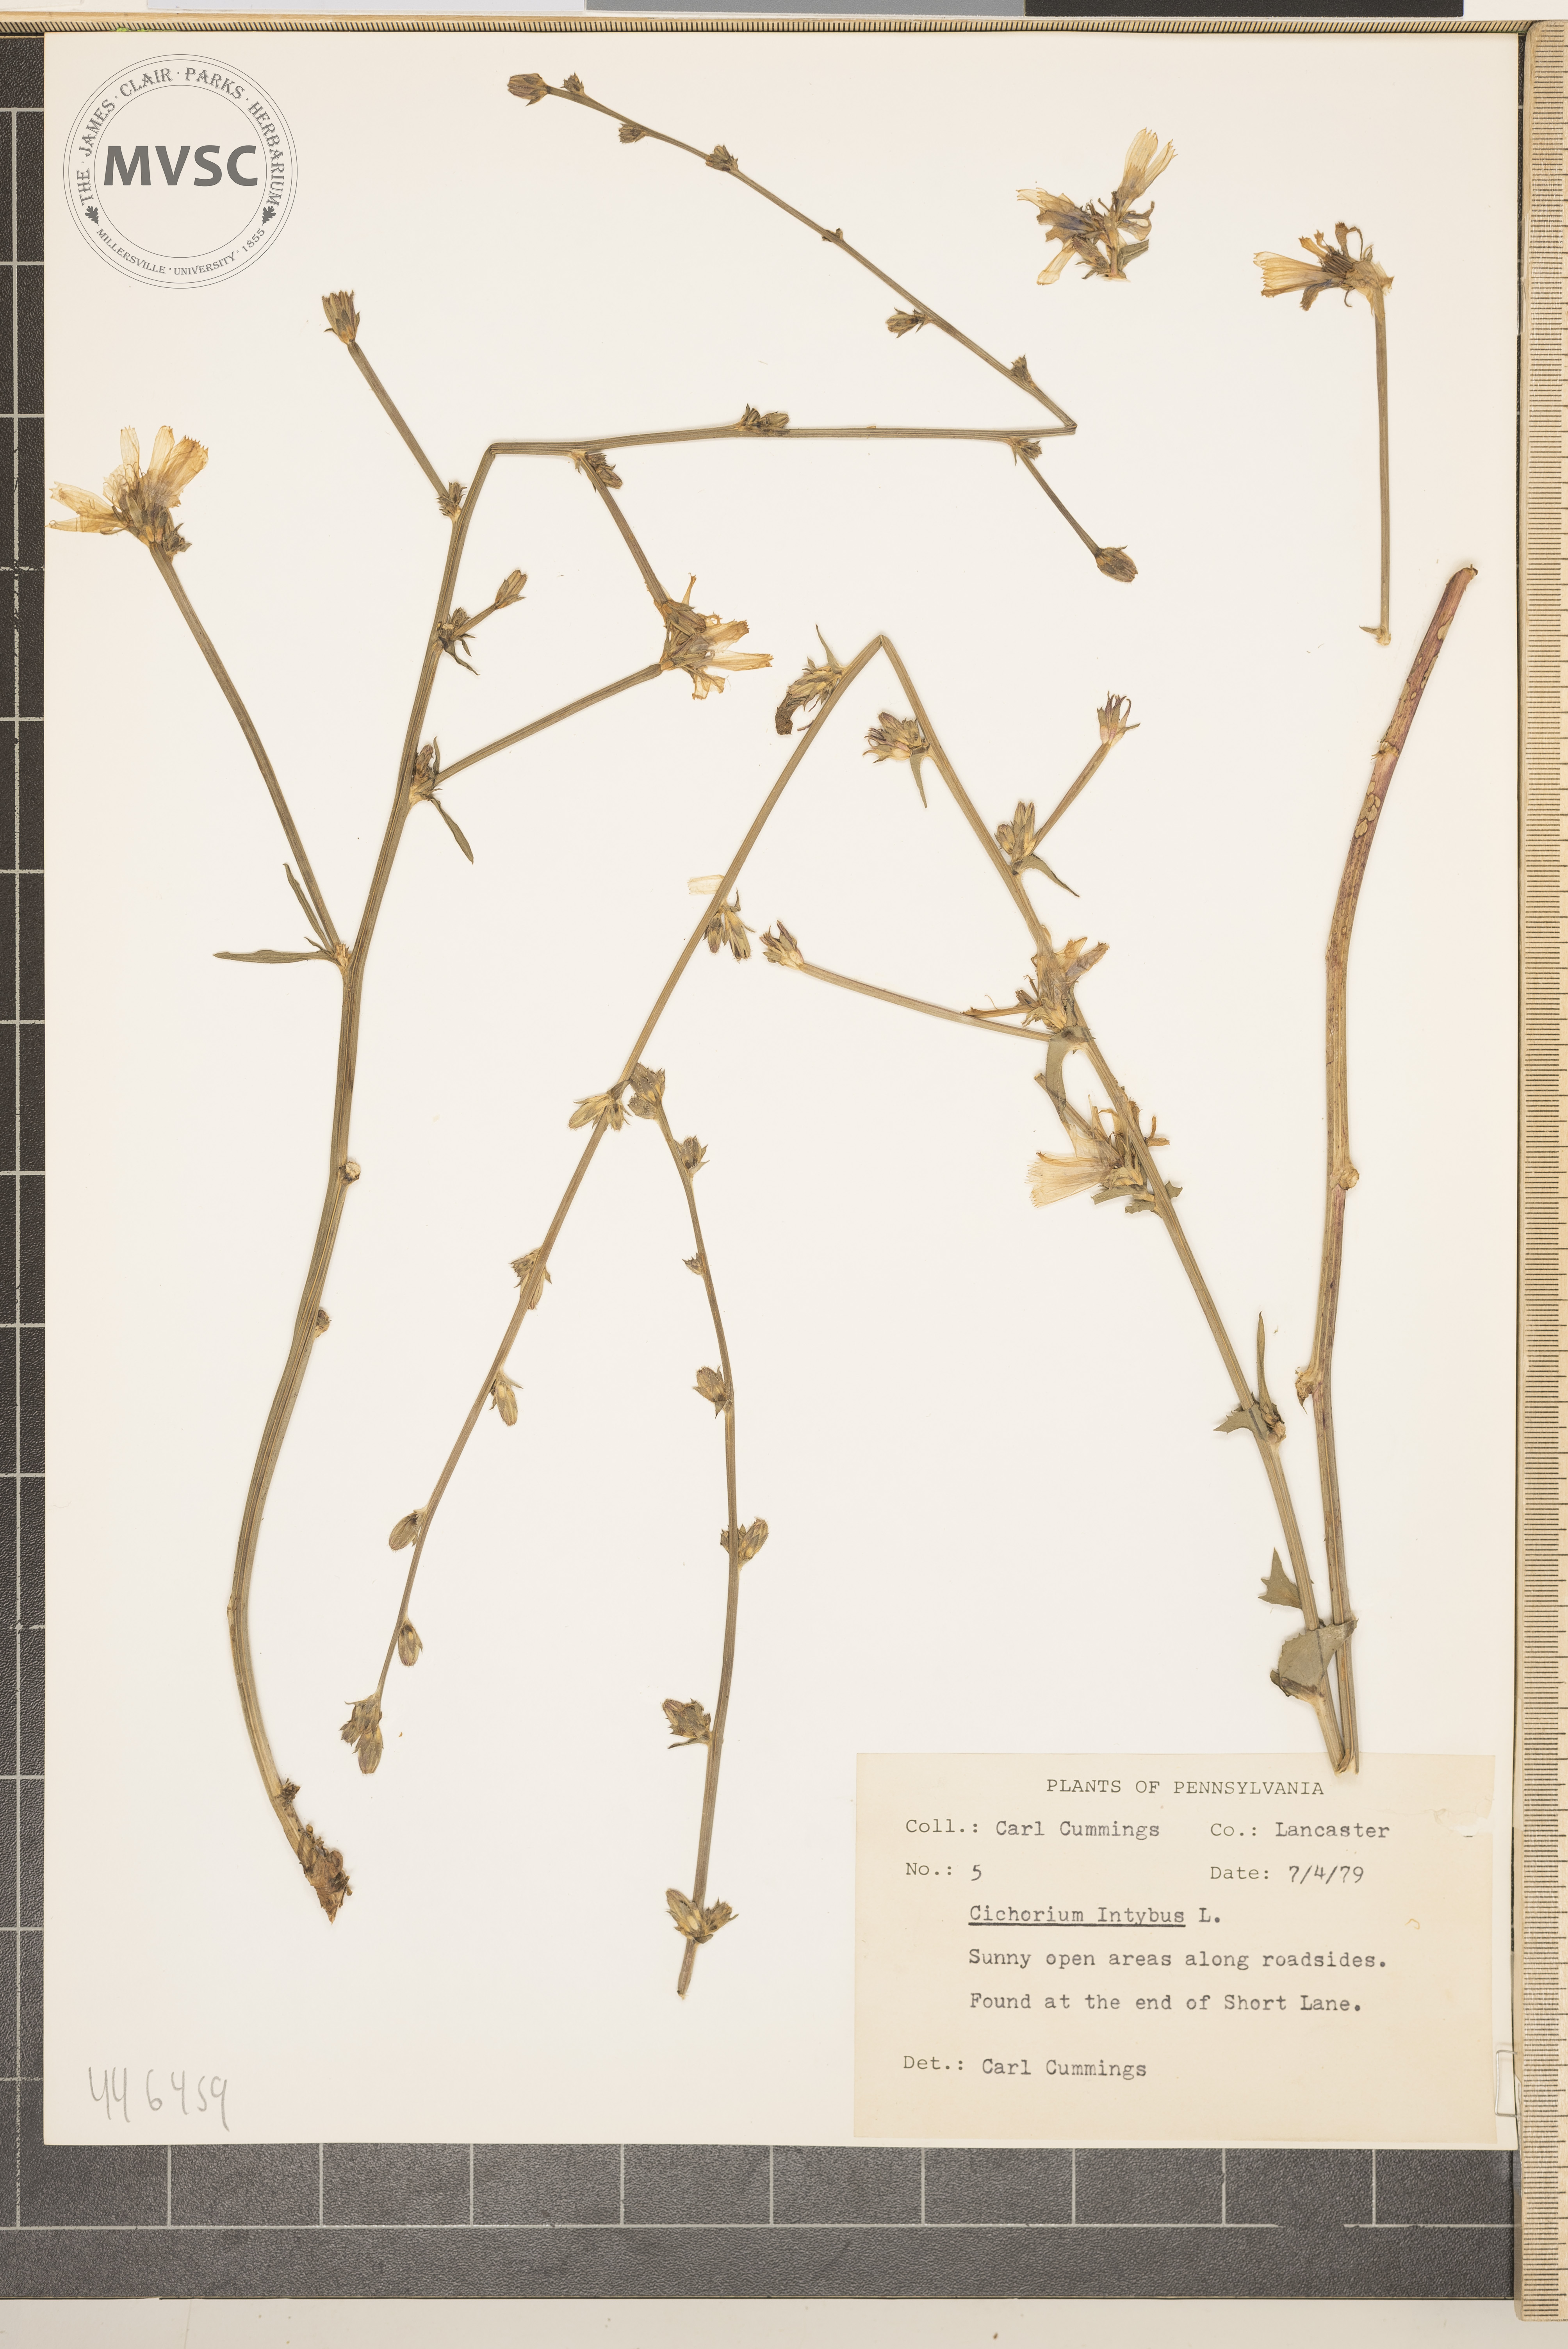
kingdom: Plantae
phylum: Tracheophyta
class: Magnoliopsida
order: Asterales
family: Asteraceae
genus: Cichorium
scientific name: Cichorium intybus
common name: Chicory
